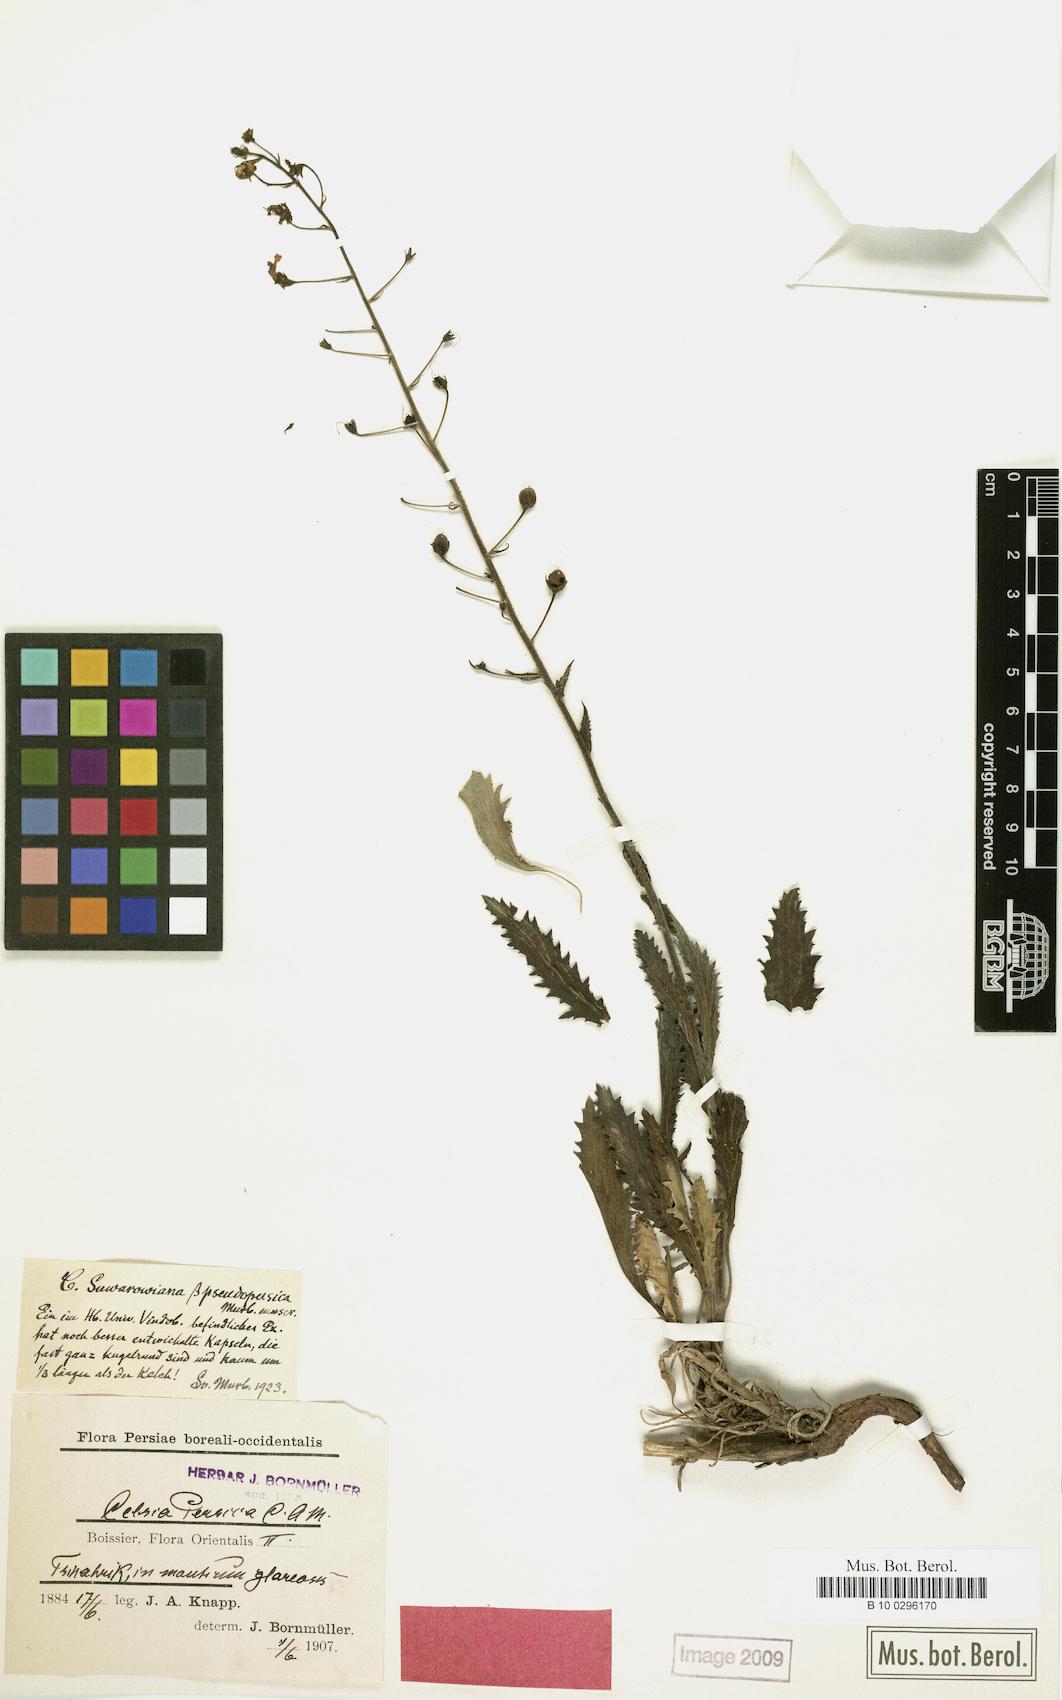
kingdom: Plantae
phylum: Tracheophyta
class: Magnoliopsida
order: Lamiales
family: Scrophulariaceae
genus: Verbascum
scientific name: Verbascum suworowianum
